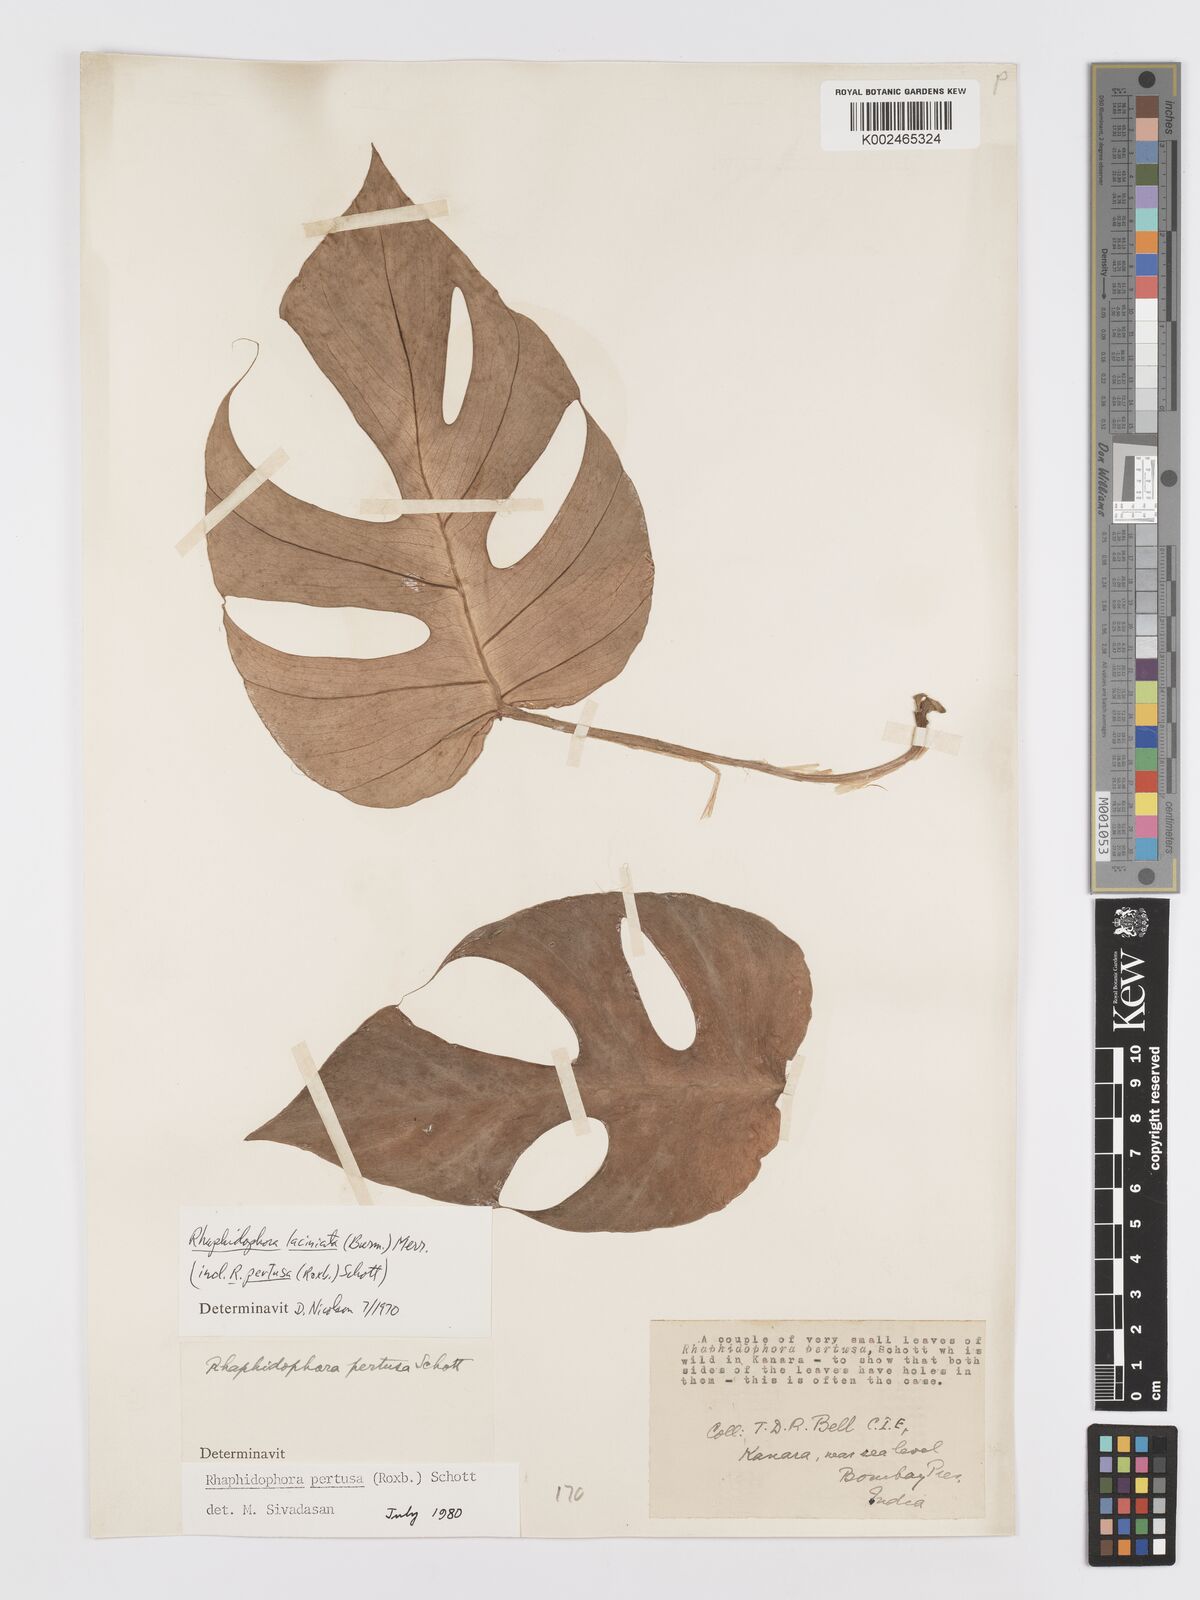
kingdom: Plantae
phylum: Tracheophyta
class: Liliopsida
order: Alismatales
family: Araceae
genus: Rhaphidophora
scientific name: Rhaphidophora pertusa
